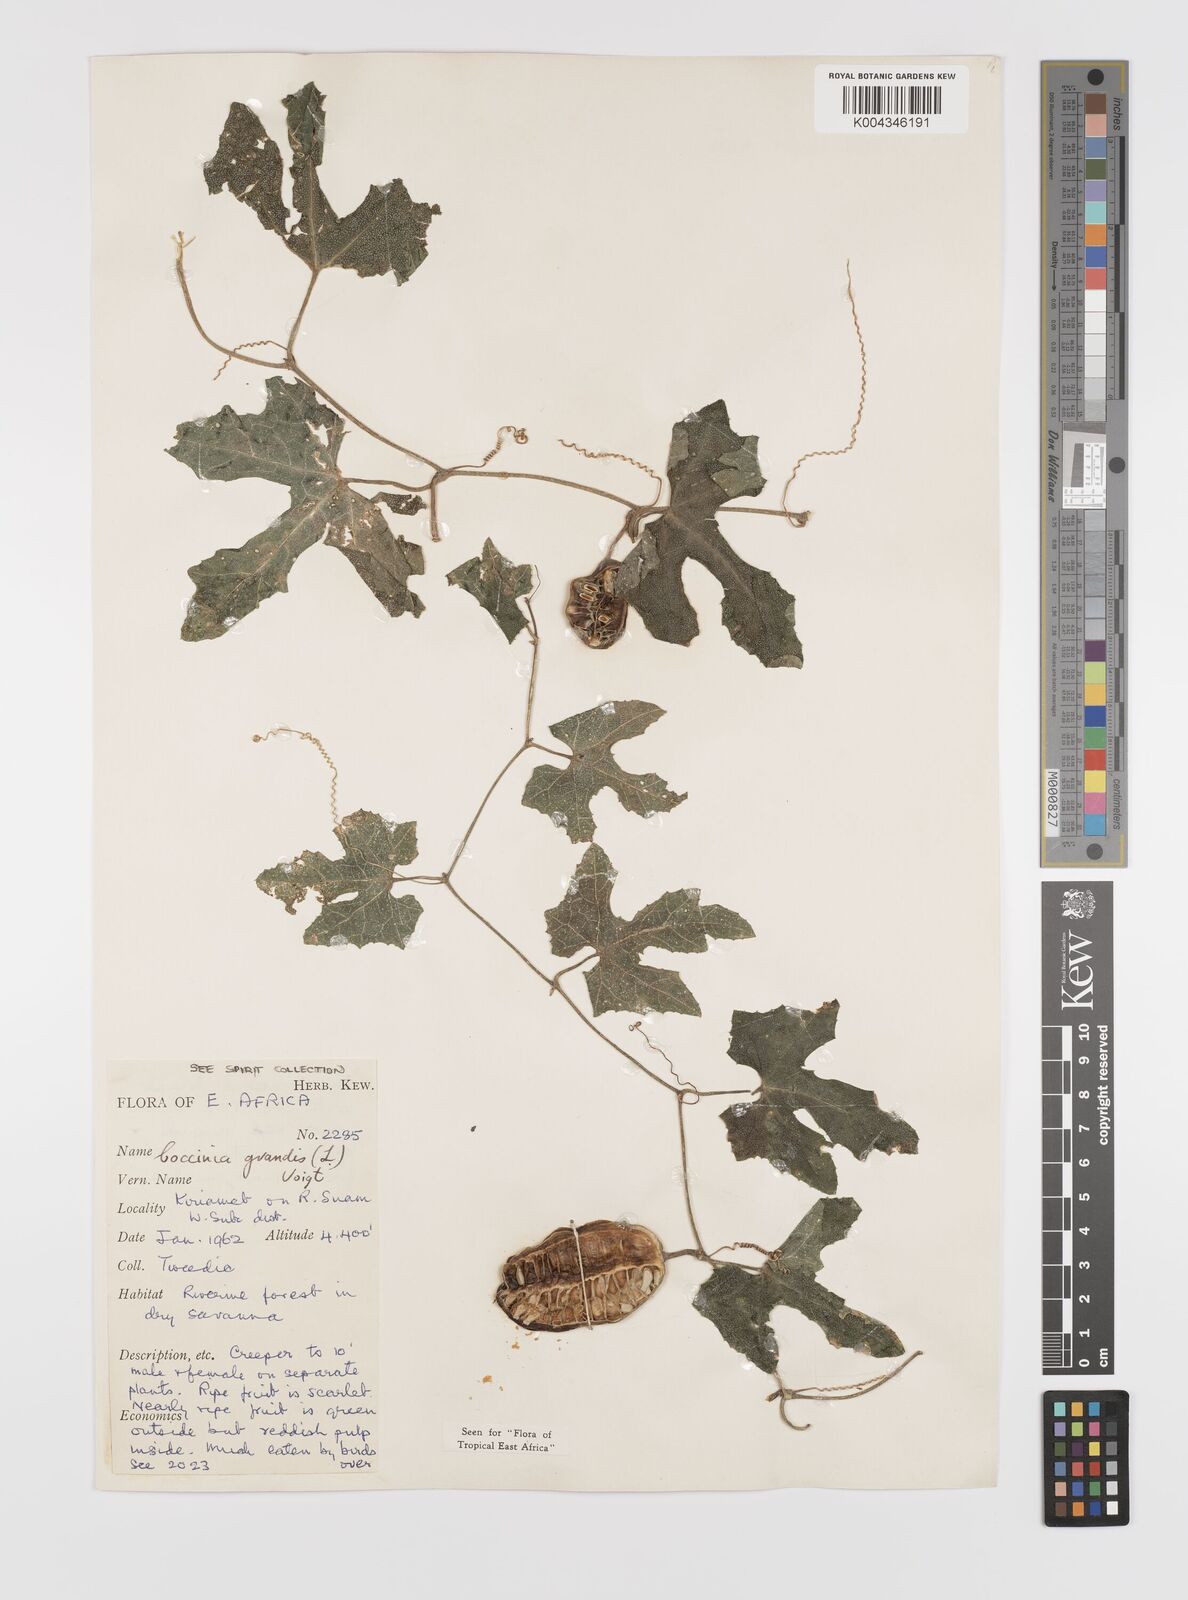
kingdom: Plantae
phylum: Tracheophyta
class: Magnoliopsida
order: Cucurbitales
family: Cucurbitaceae
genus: Coccinia
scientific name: Coccinia grandis
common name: Ivy gourd
